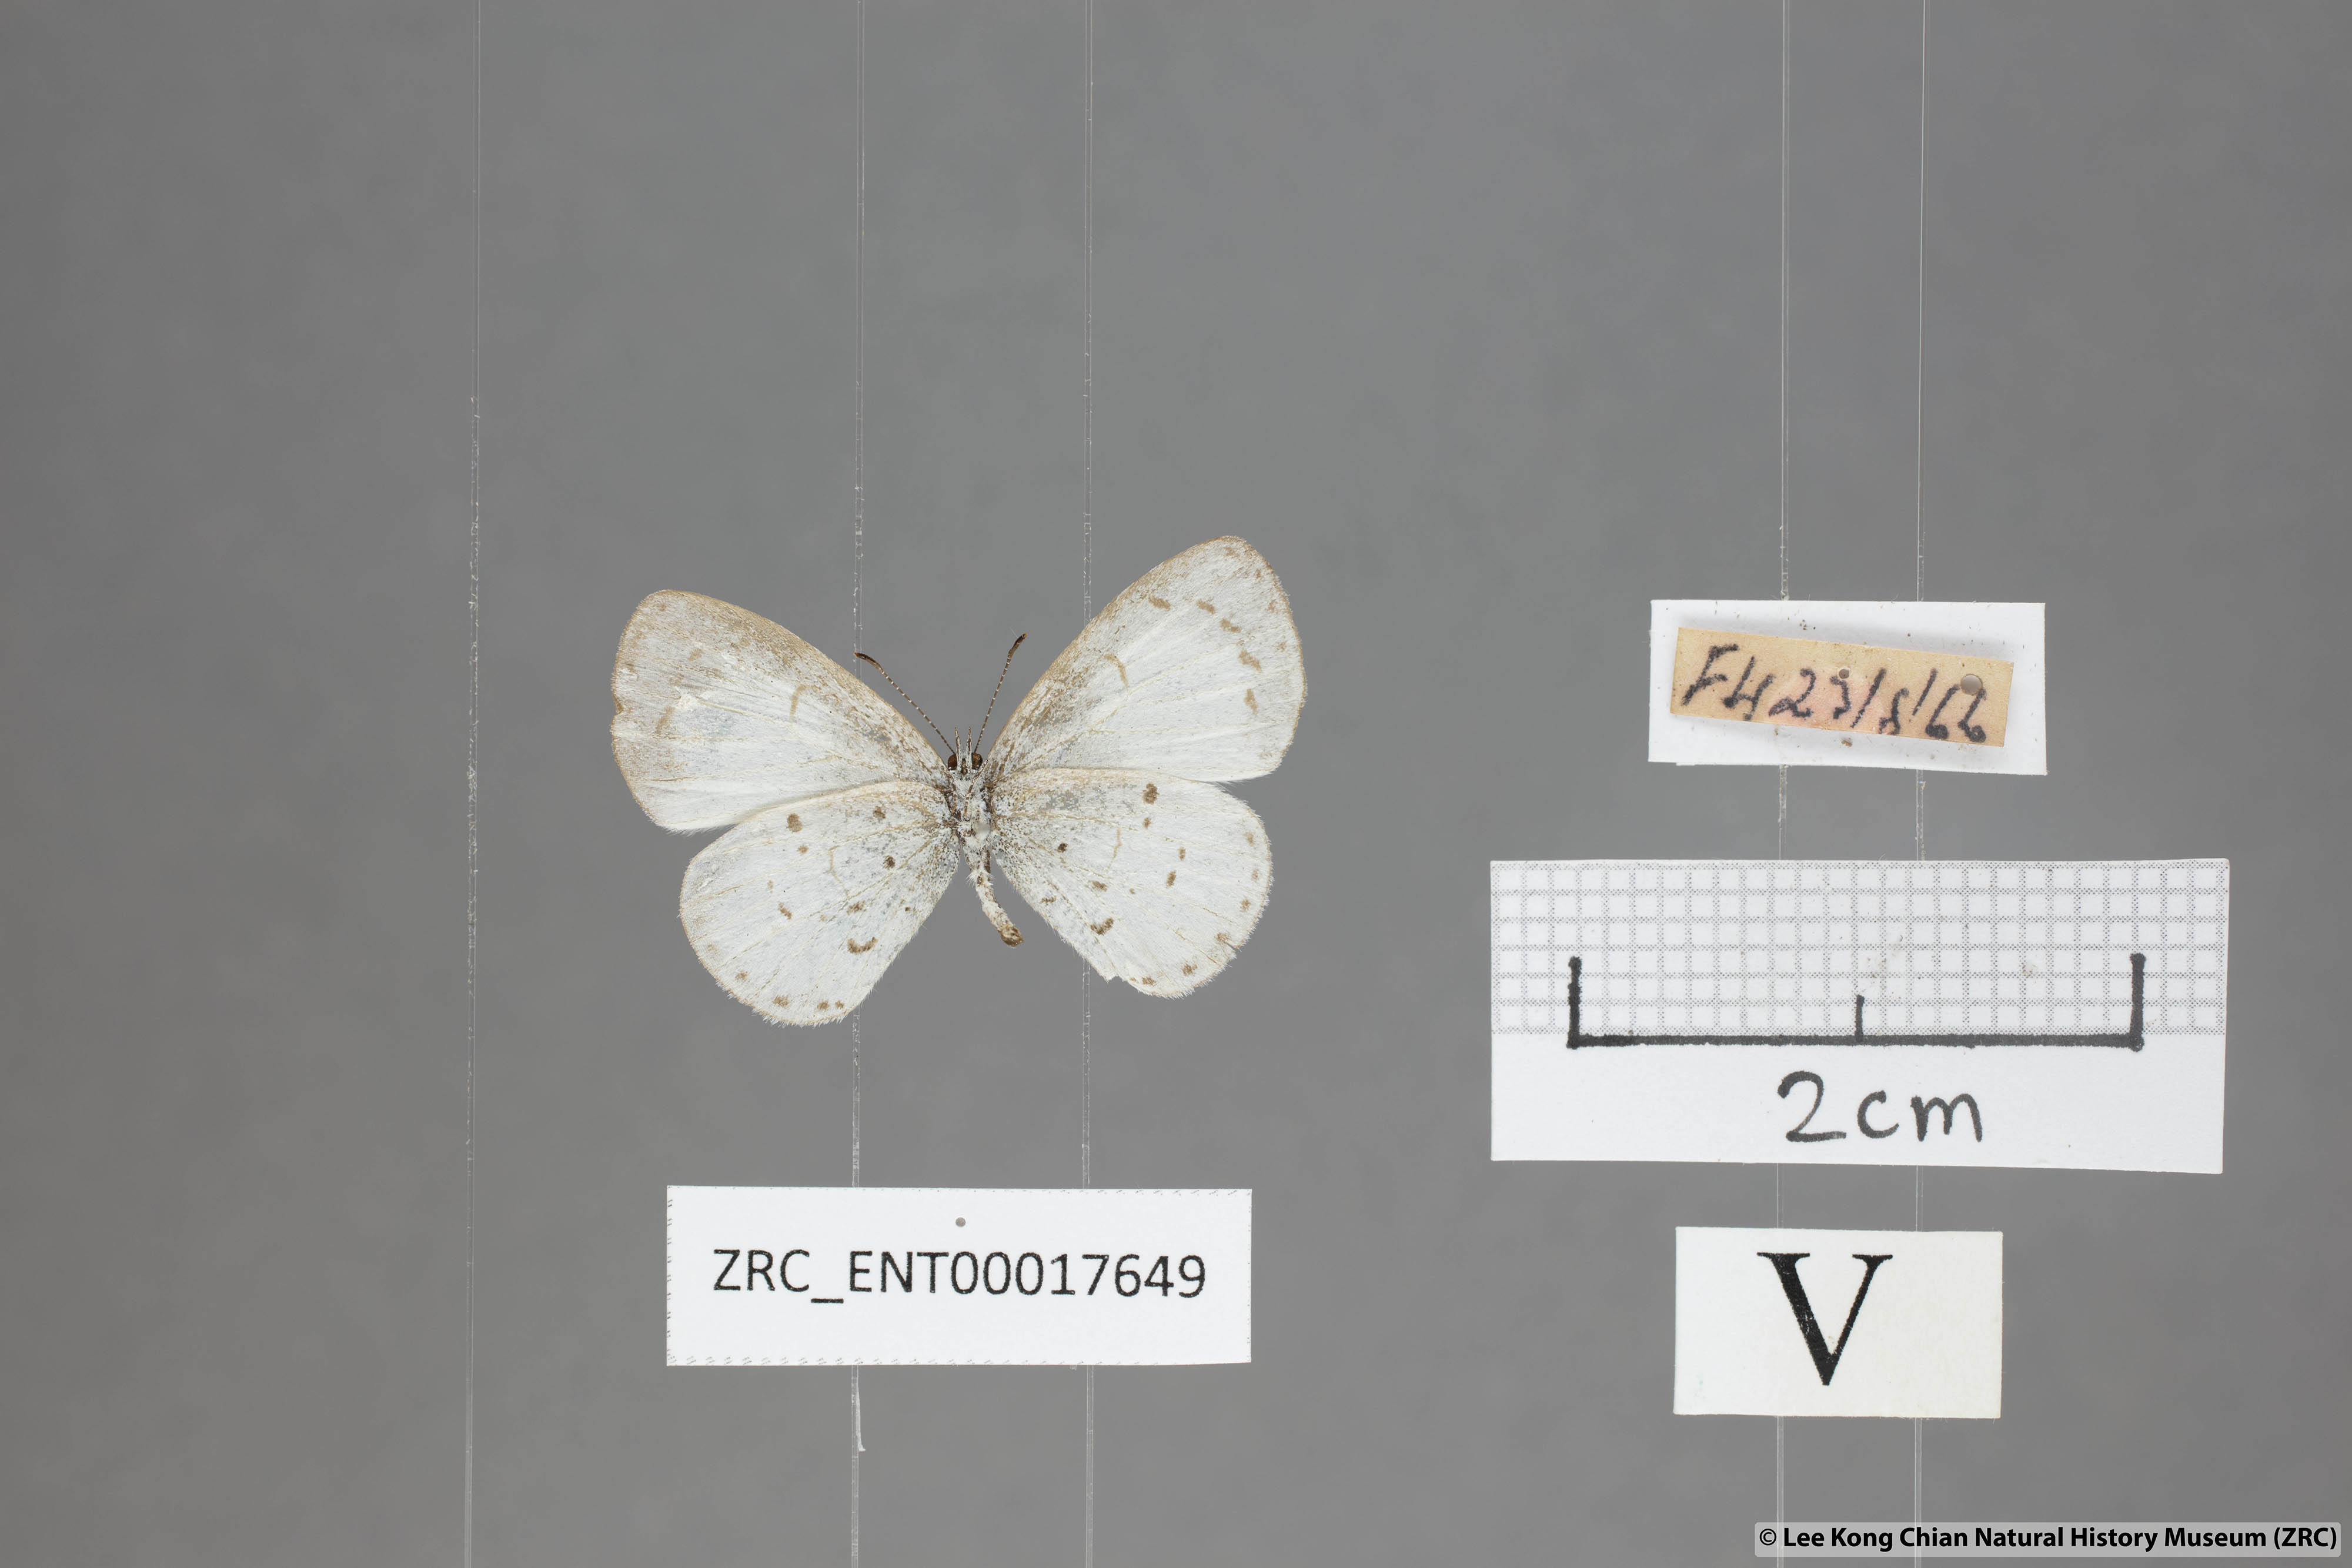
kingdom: Animalia
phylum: Arthropoda
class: Insecta
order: Lepidoptera
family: Lycaenidae
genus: Udara
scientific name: Udara akasa
